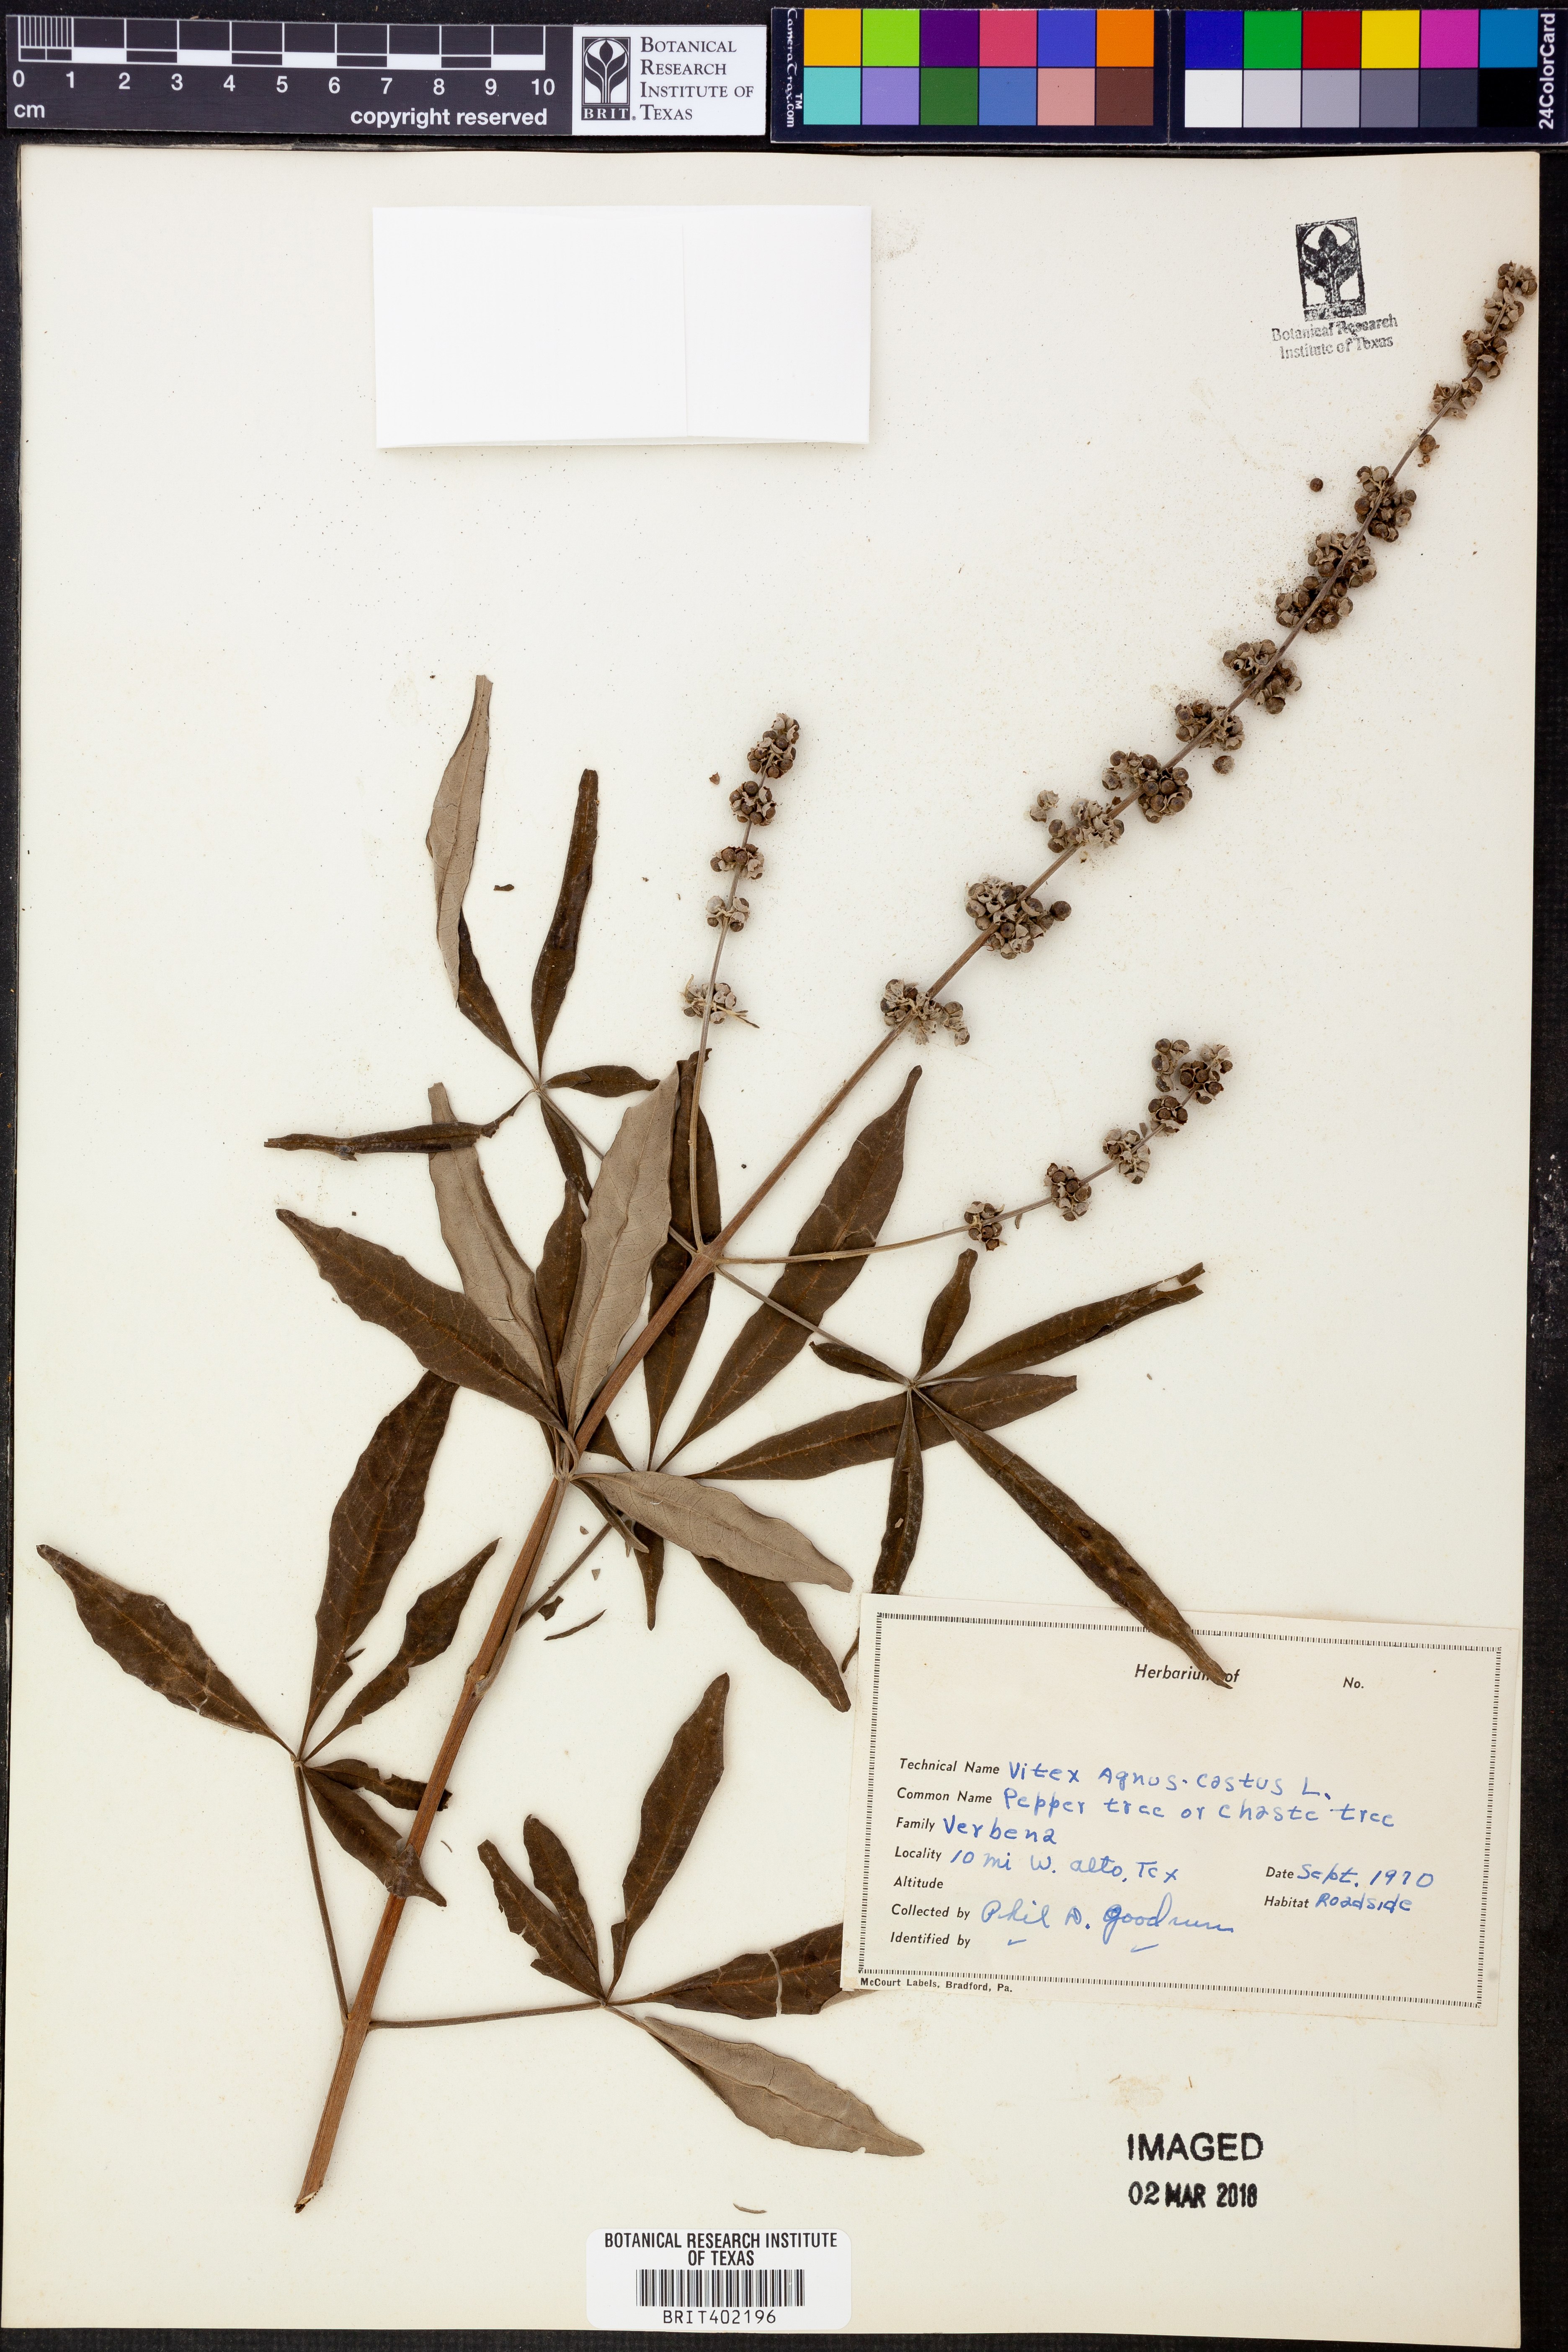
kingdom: Plantae
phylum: Tracheophyta
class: Magnoliopsida
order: Lamiales
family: Lamiaceae
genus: Vitex
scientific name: Vitex agnus-castus
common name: Chasteberry
